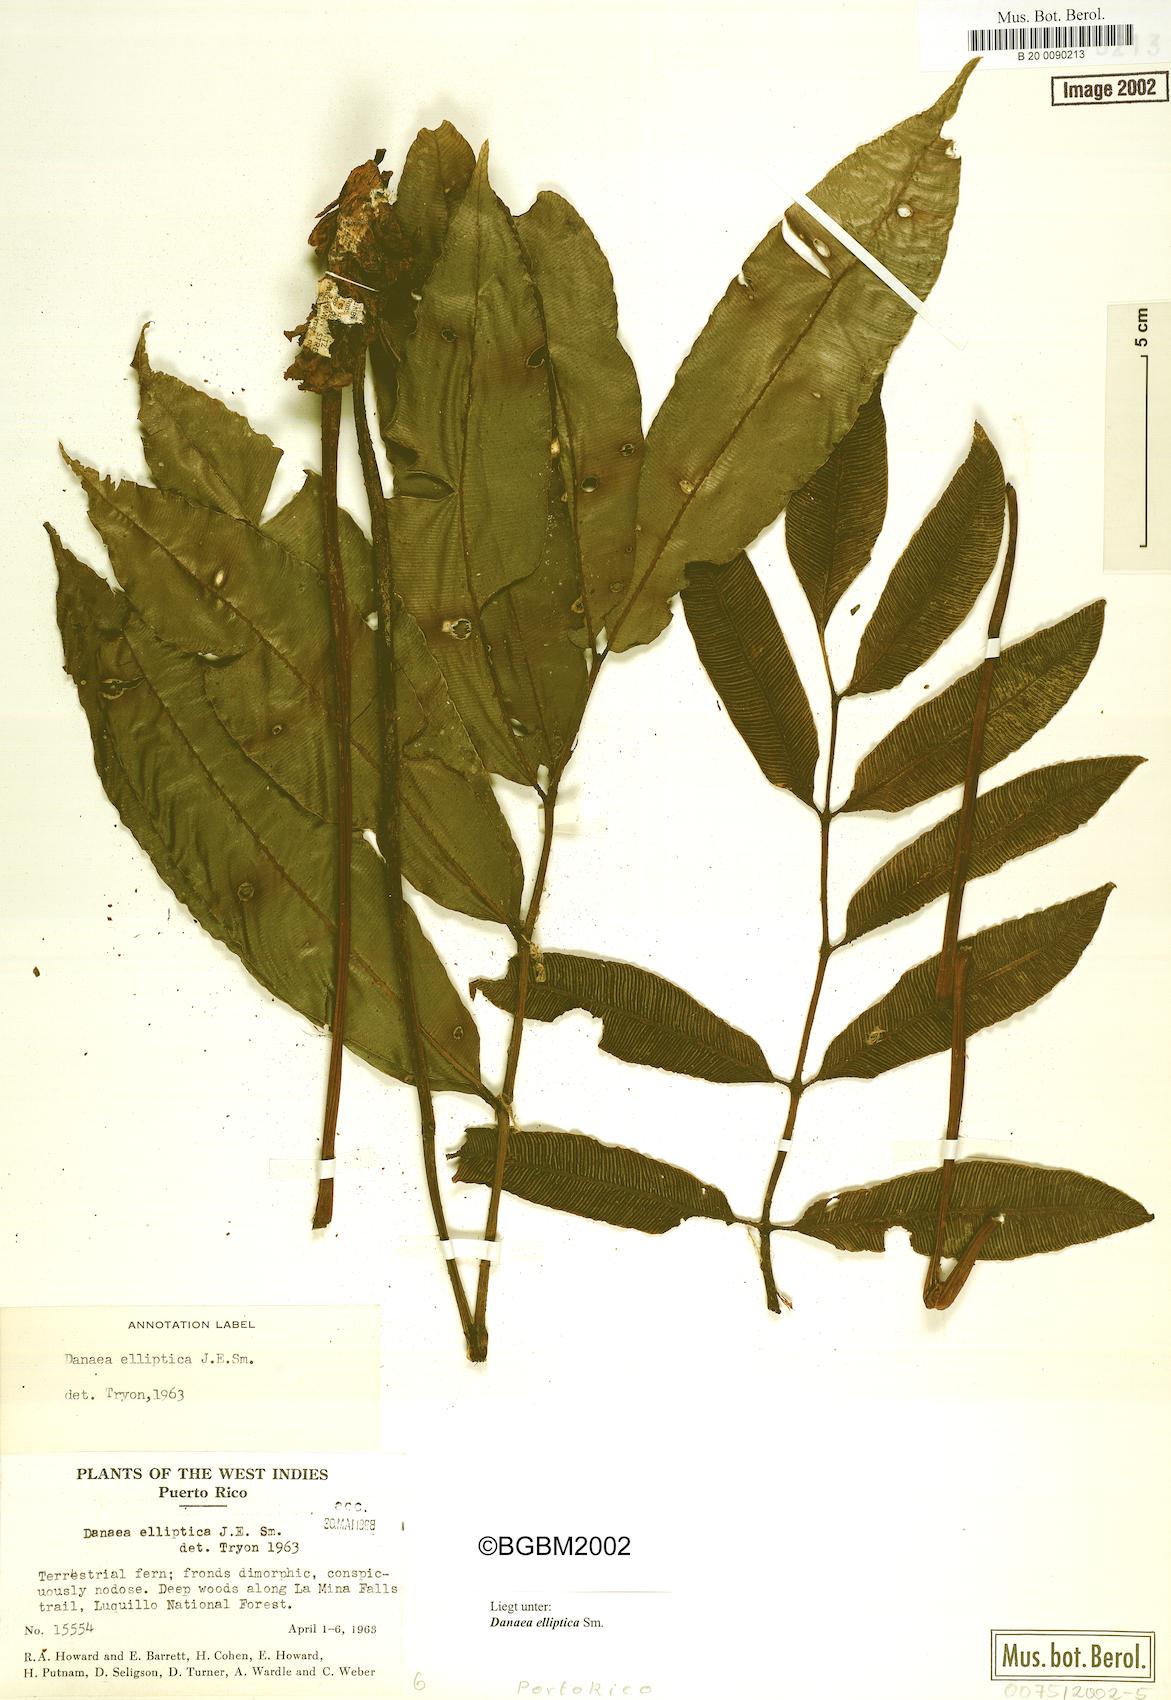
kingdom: Plantae
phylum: Tracheophyta
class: Polypodiopsida
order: Marattiales
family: Marattiaceae
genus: Danaea
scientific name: Danaea nodosa
